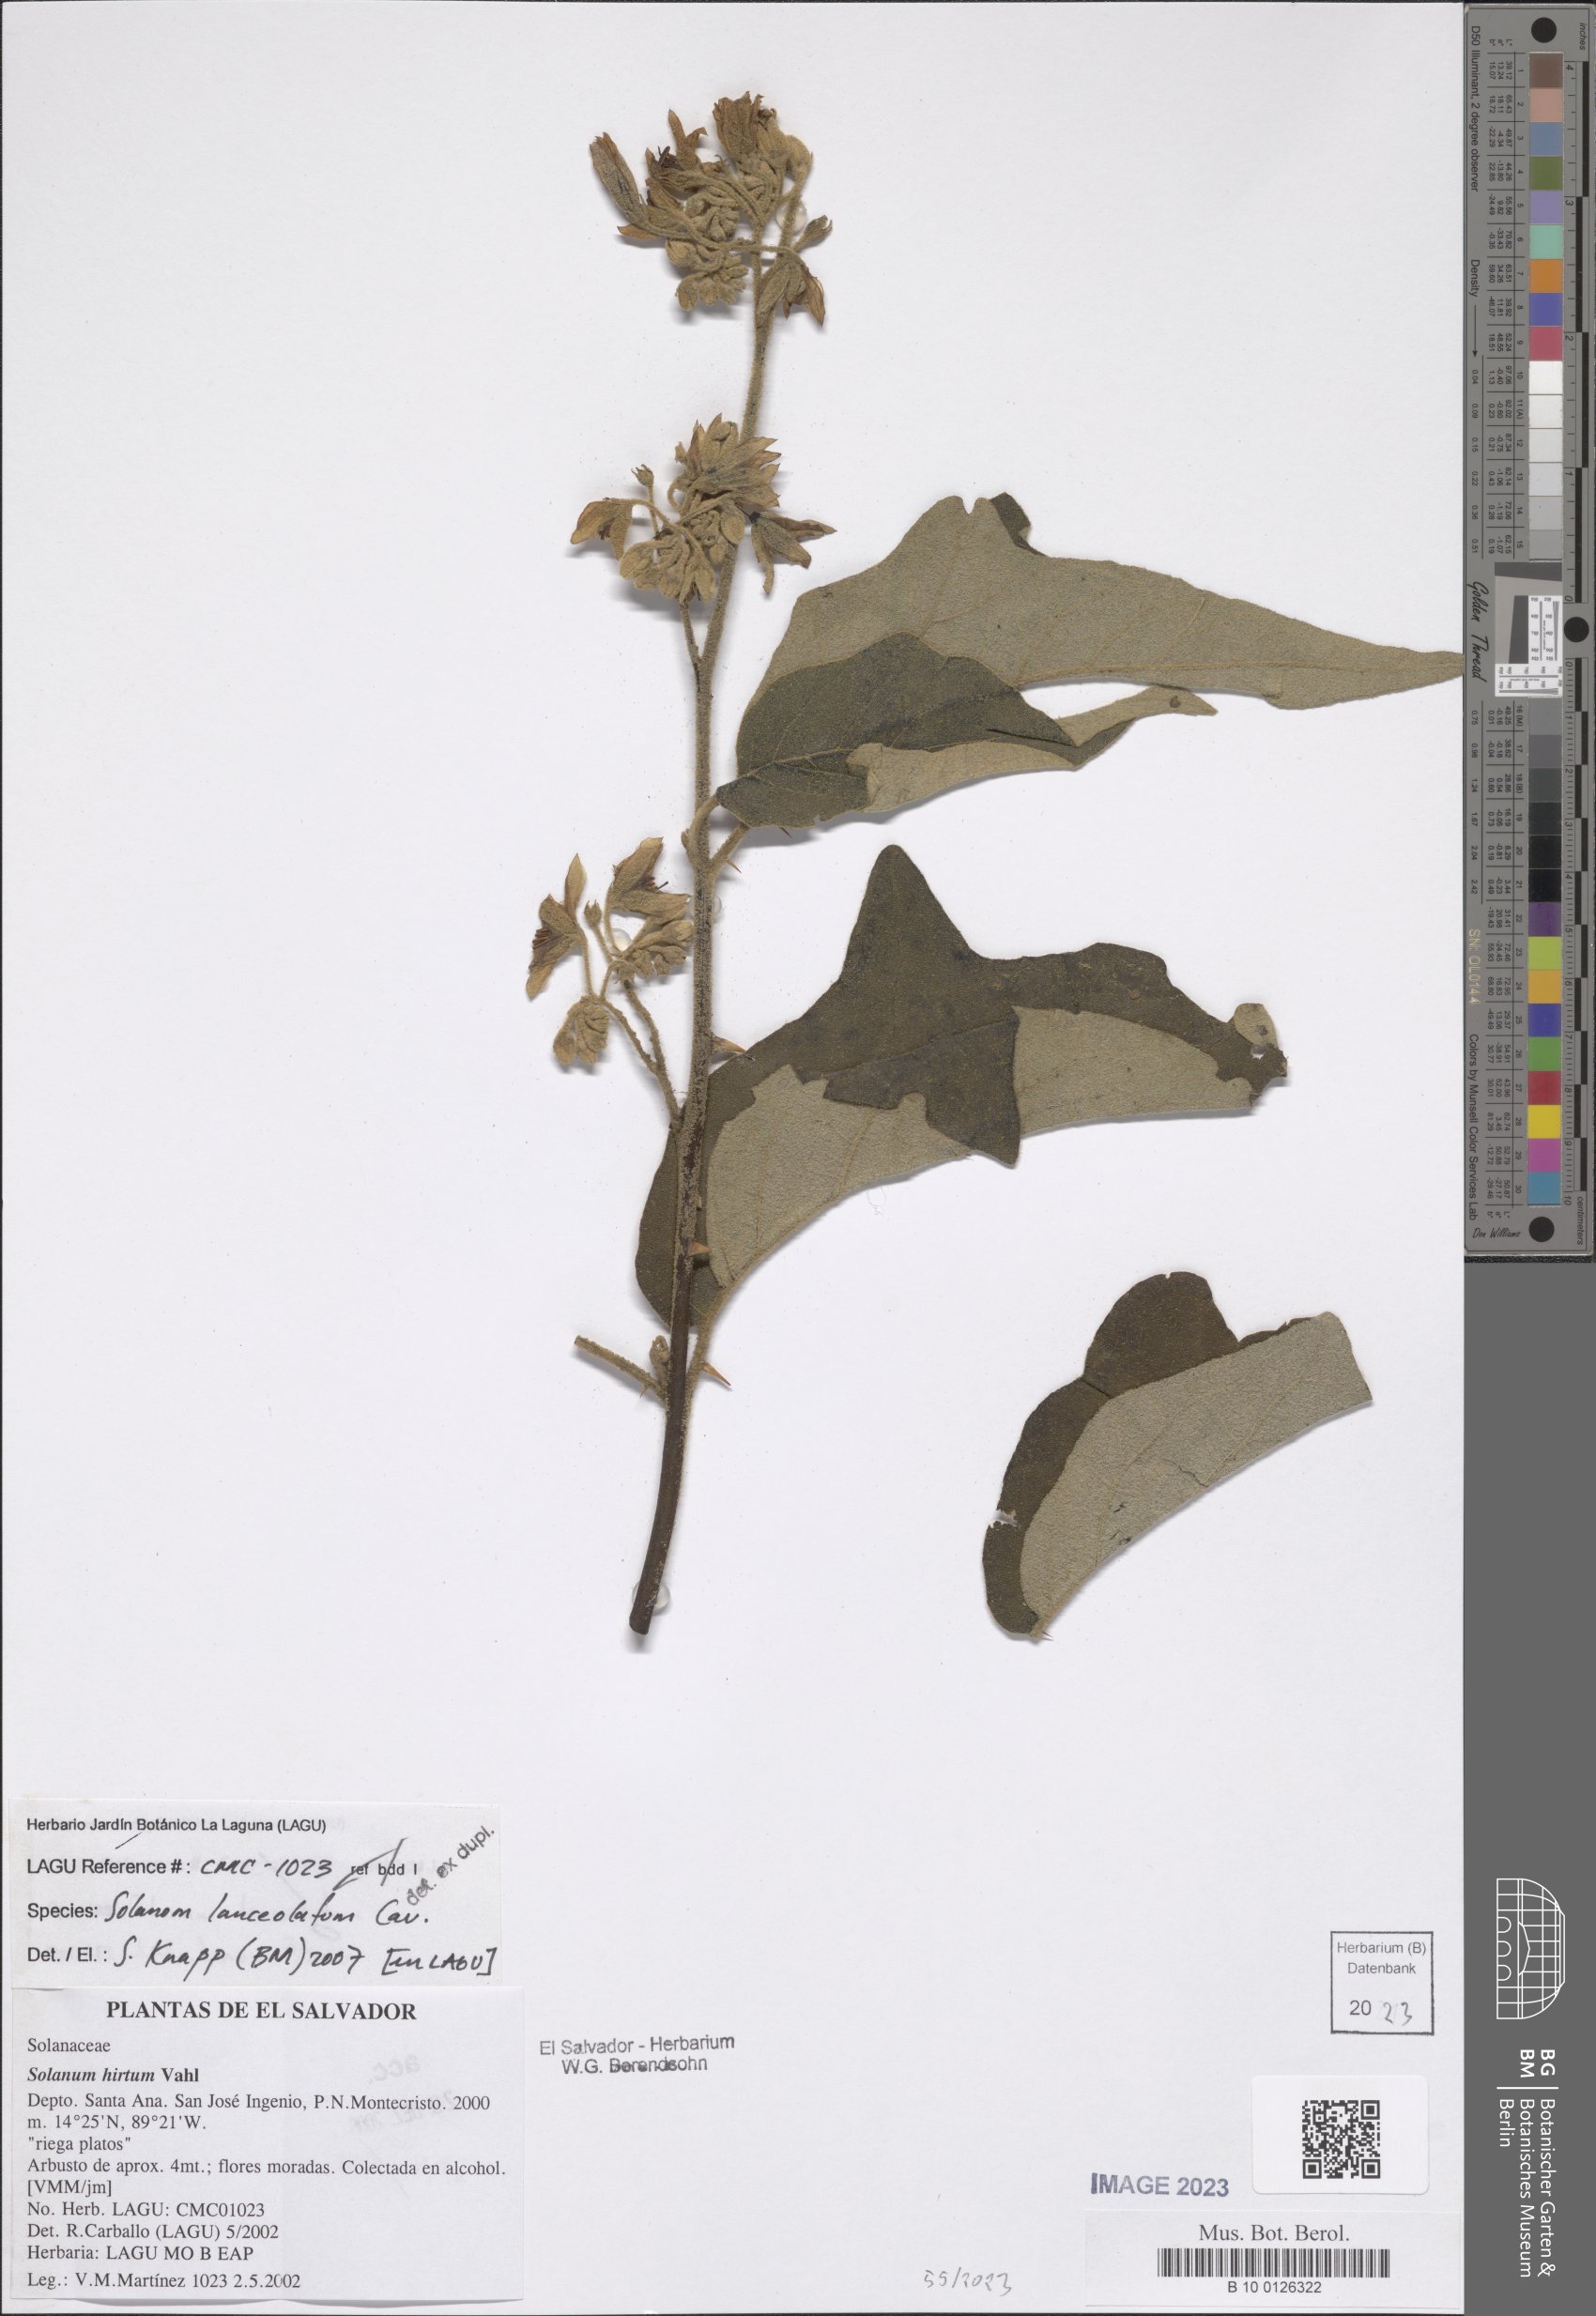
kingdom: Plantae
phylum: Tracheophyta
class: Magnoliopsida
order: Solanales
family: Solanaceae
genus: Solanum
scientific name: Solanum lanceolatum
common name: Orangeberry nightshade
